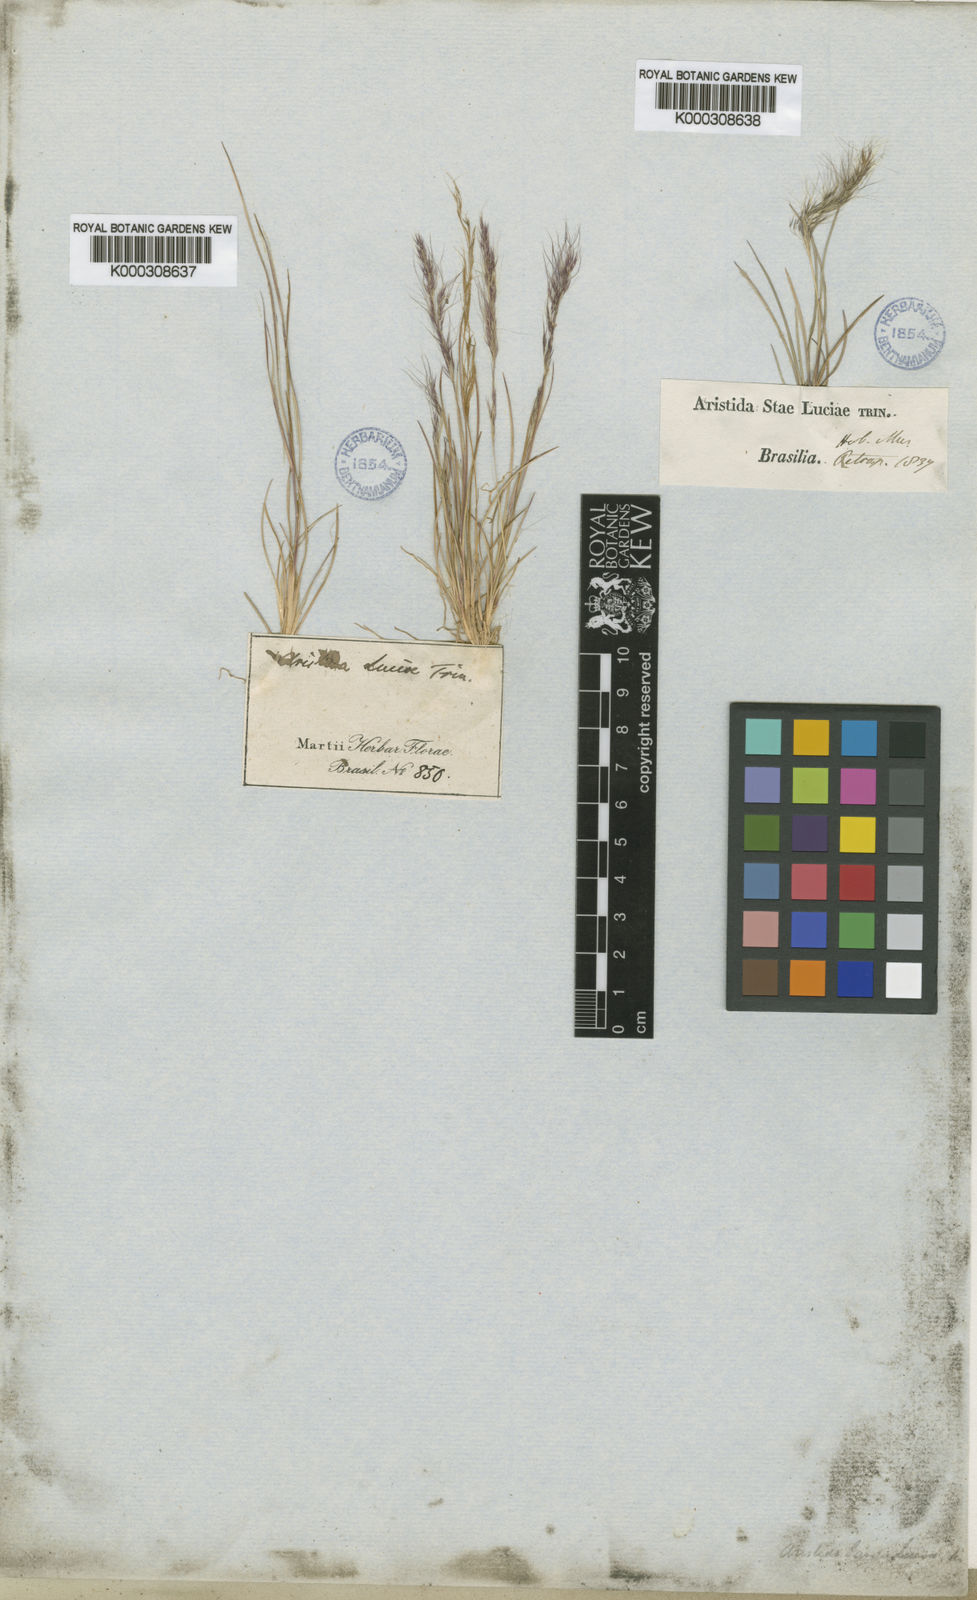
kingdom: Plantae
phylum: Tracheophyta
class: Liliopsida
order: Poales
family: Poaceae
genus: Aristida
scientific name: Aristida sanctae-luciae
